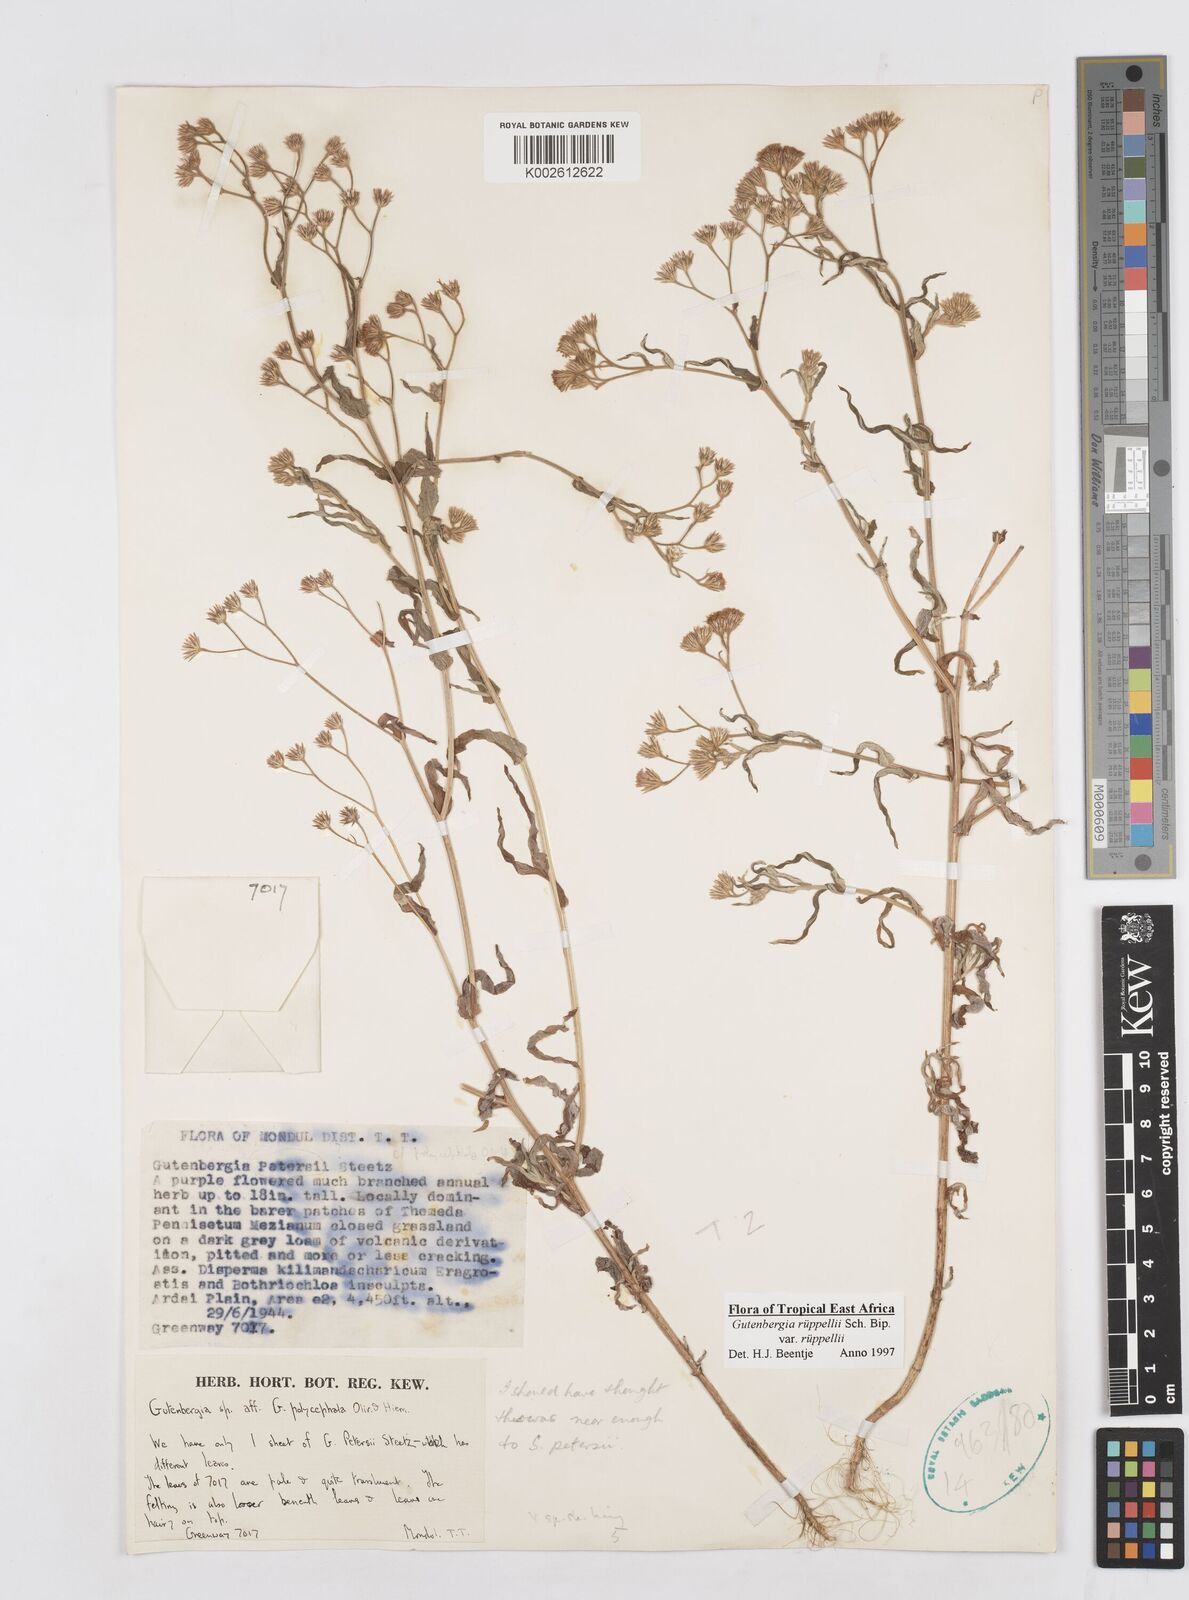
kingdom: Plantae
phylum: Tracheophyta
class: Magnoliopsida
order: Asterales
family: Asteraceae
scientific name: Asteraceae
